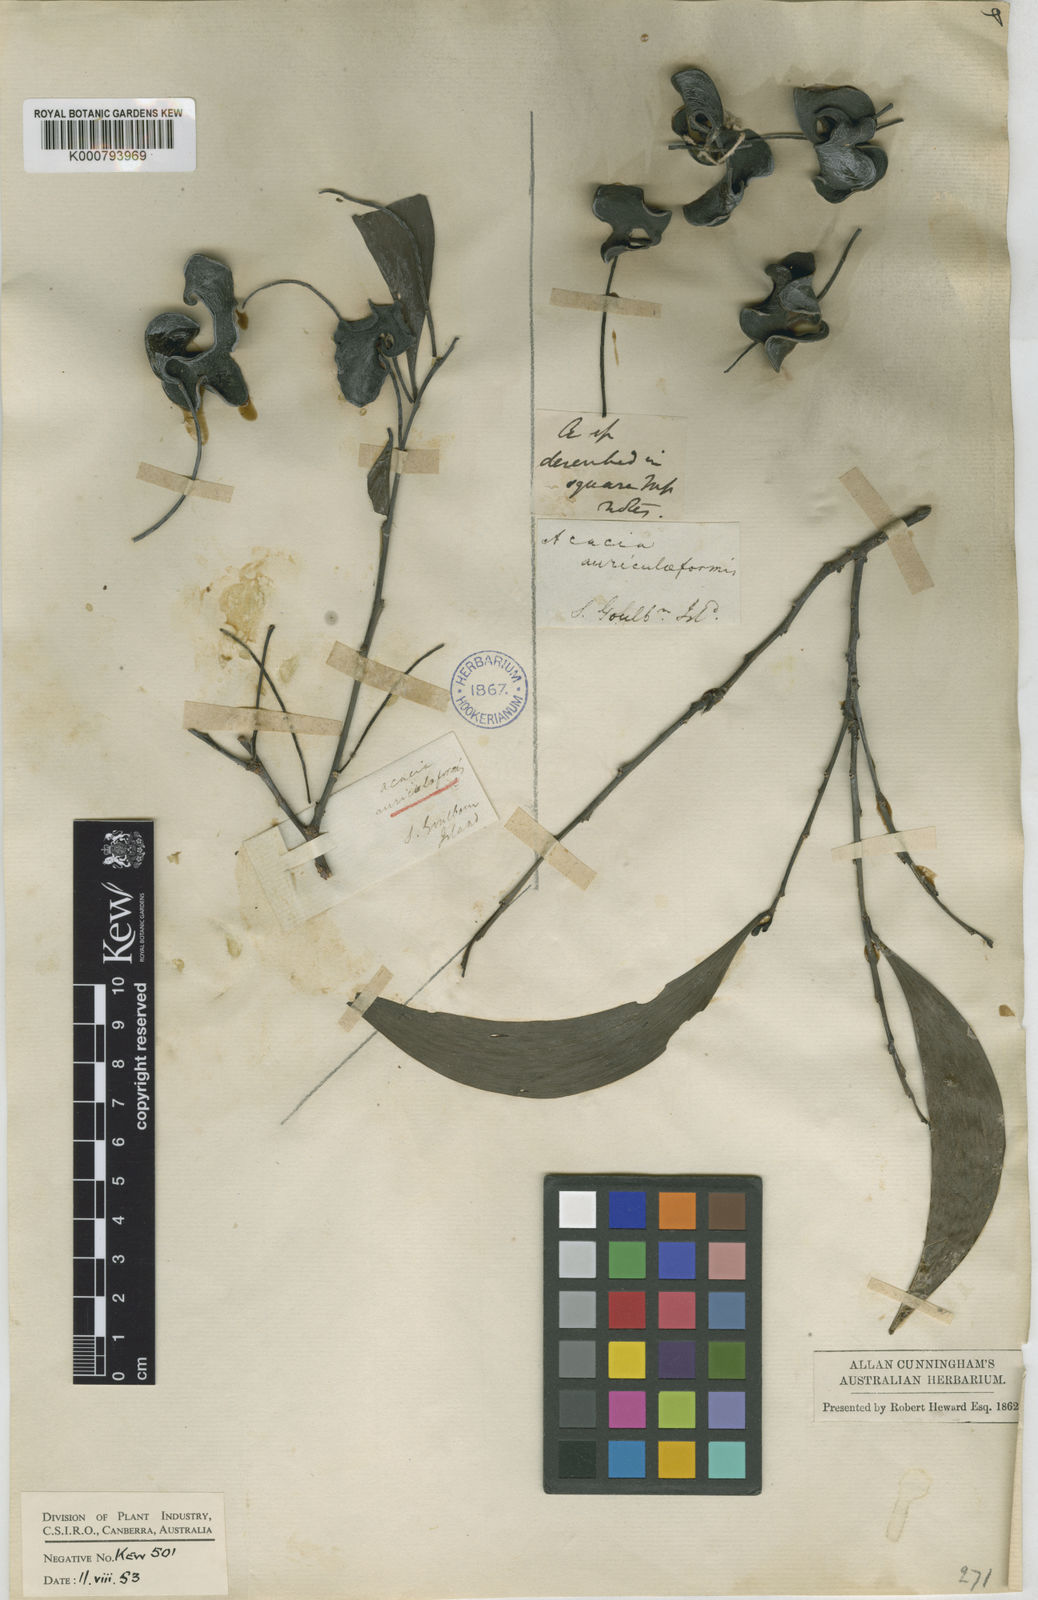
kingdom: Plantae
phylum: Tracheophyta
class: Magnoliopsida
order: Fabales
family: Fabaceae
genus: Acacia
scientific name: Acacia auriculiformis
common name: Earleaf acacia
